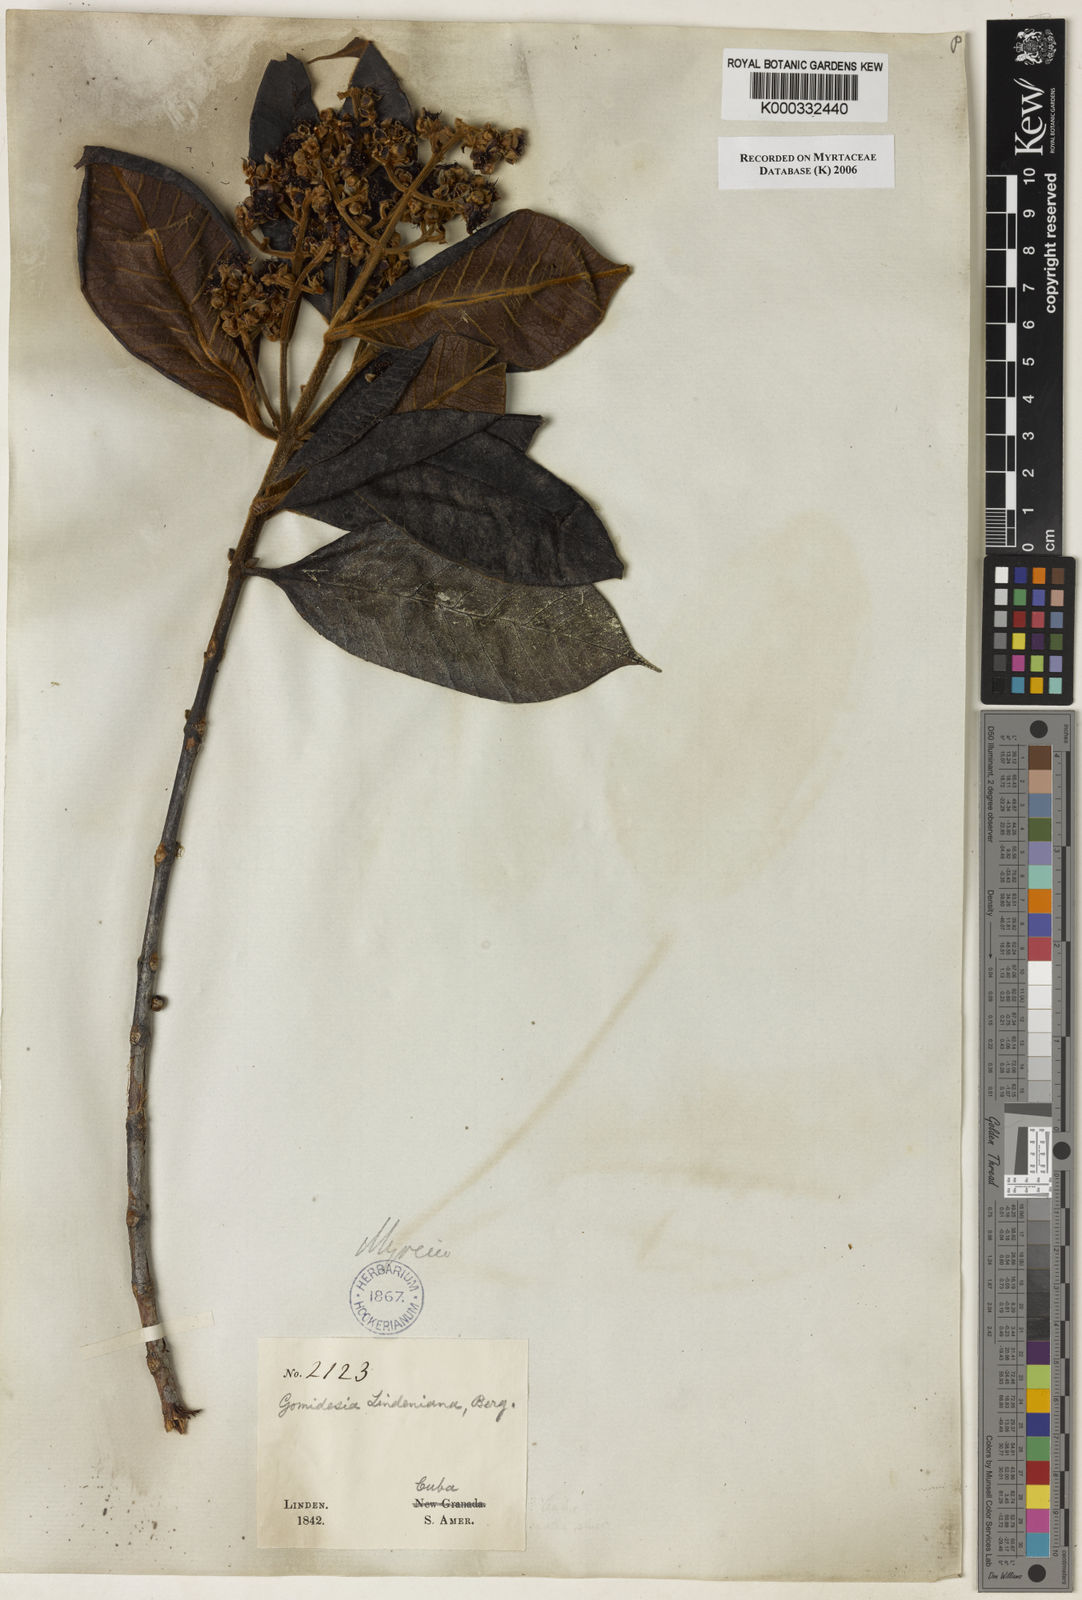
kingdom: Plantae
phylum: Tracheophyta
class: Magnoliopsida
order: Myrtales
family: Myrtaceae
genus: Myrcia
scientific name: Myrcia fenzliana
